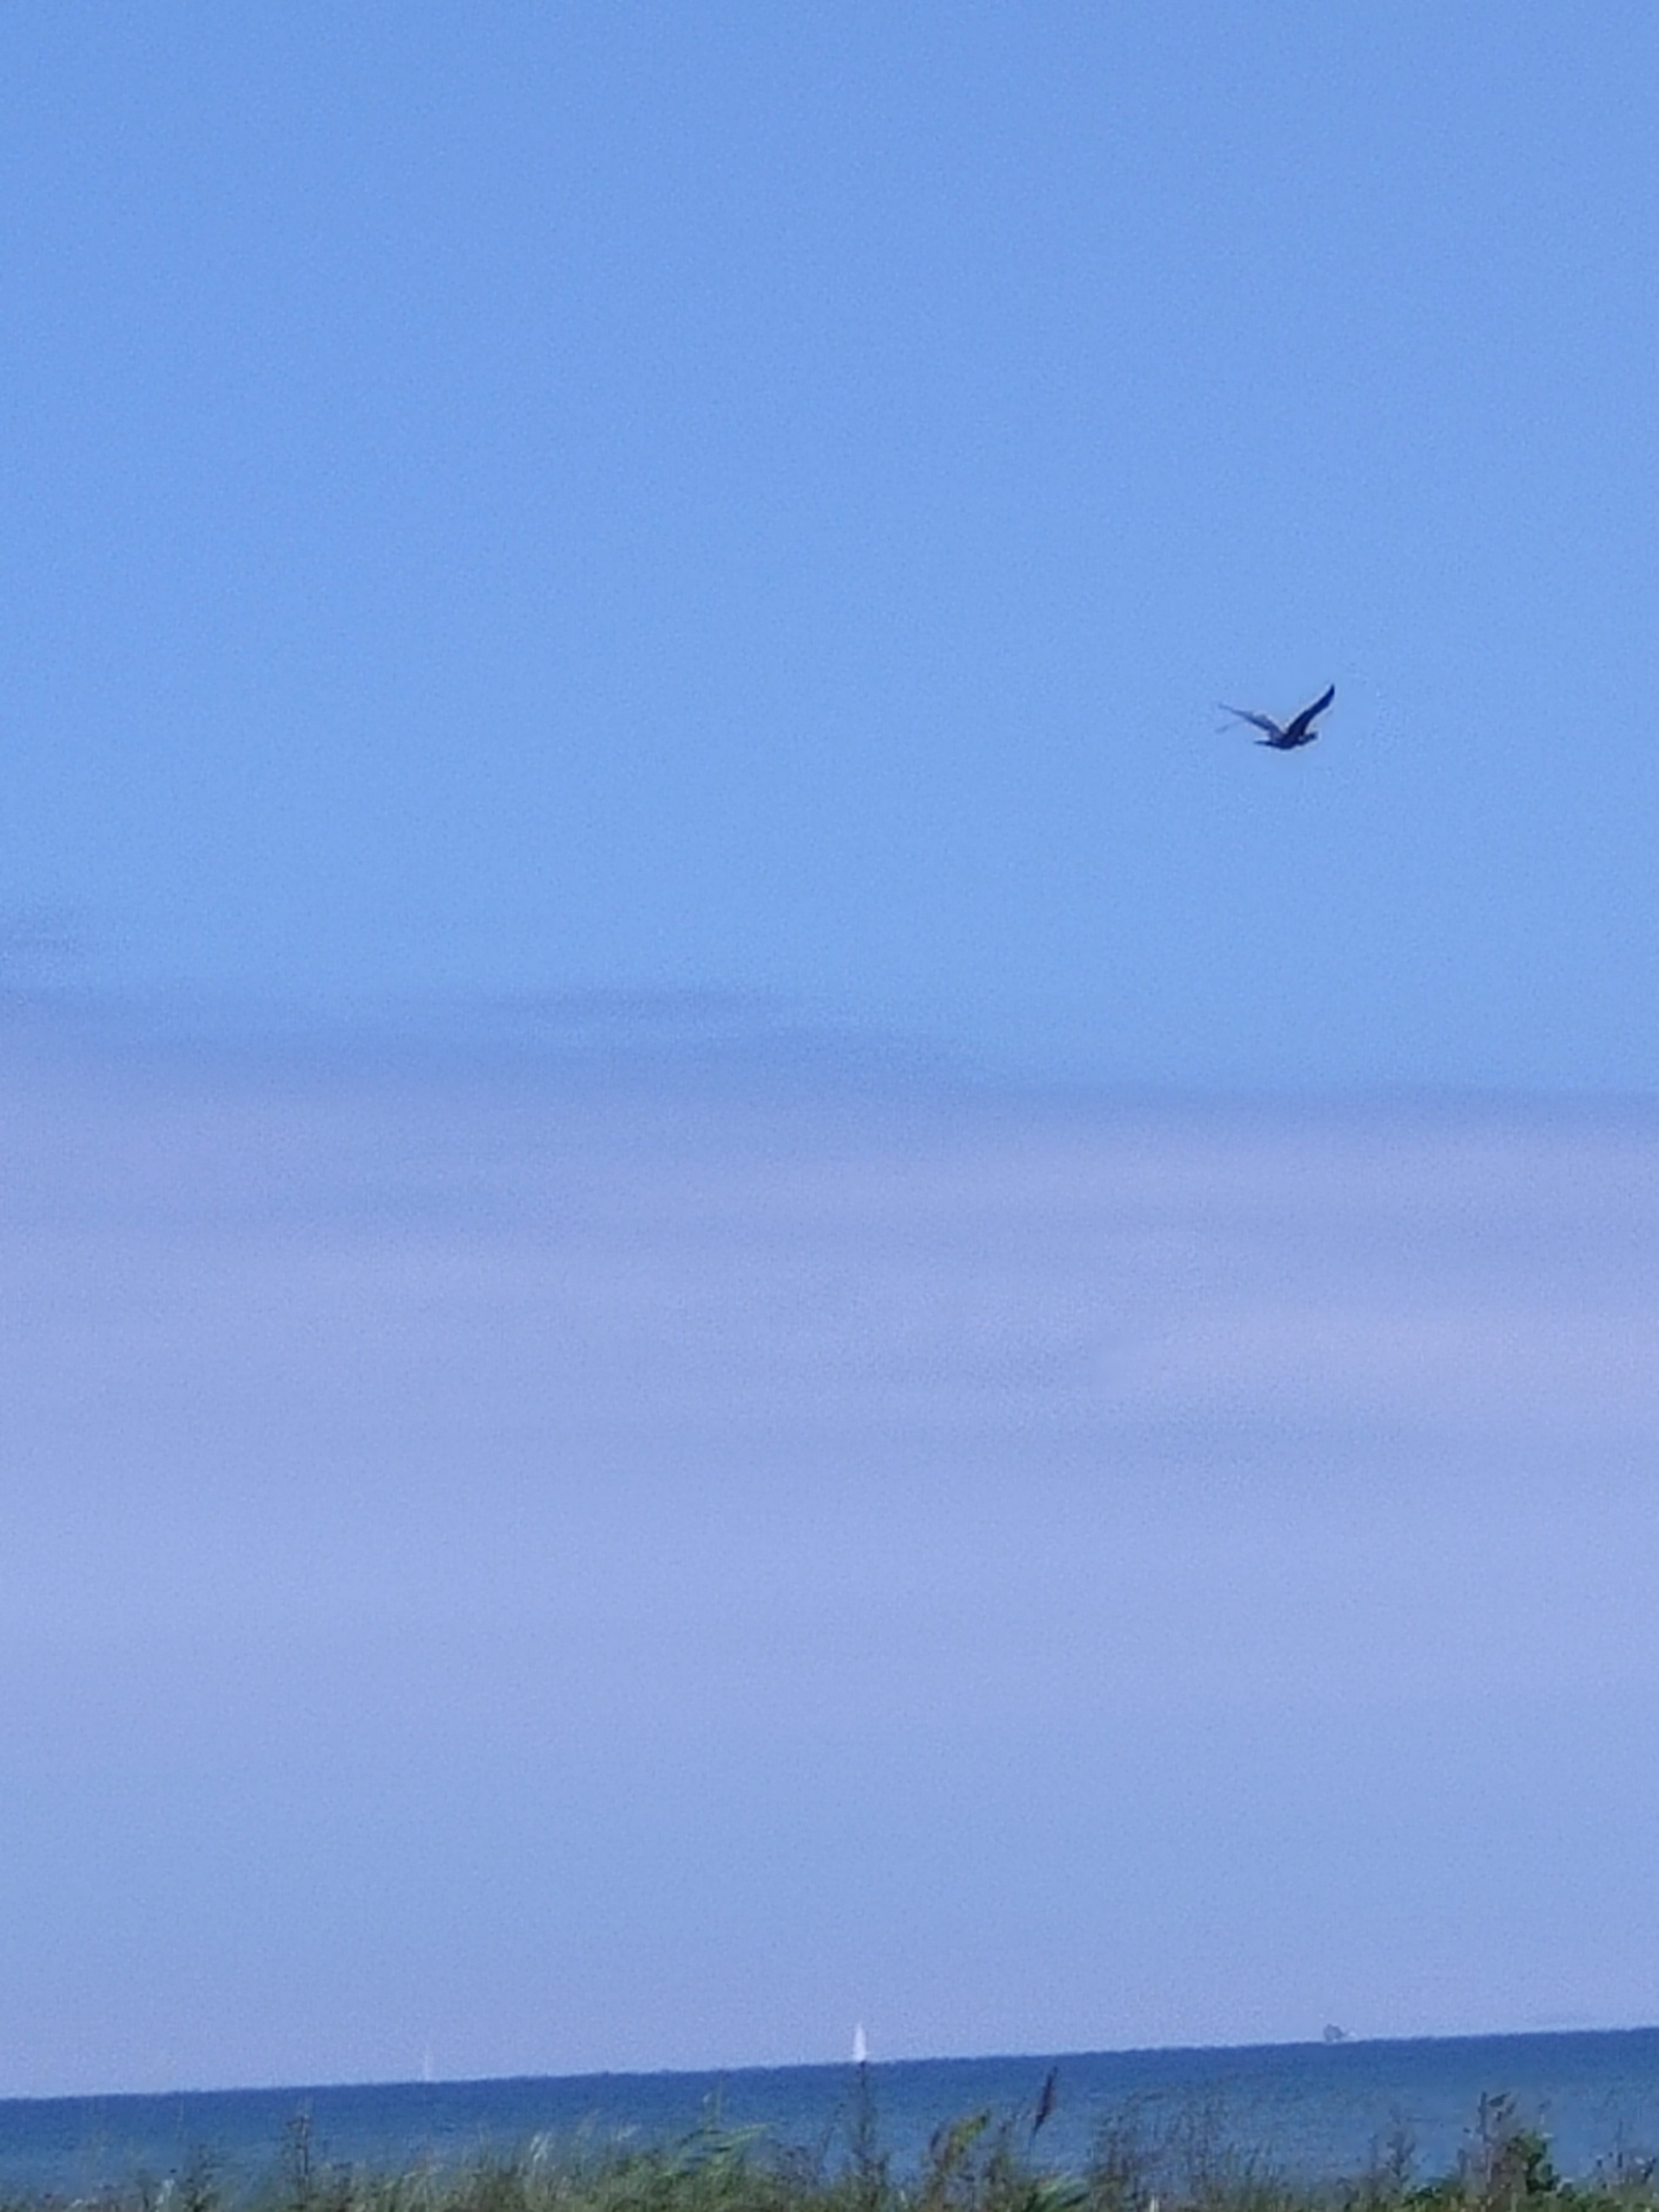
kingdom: Animalia
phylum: Chordata
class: Aves
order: Suliformes
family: Phalacrocoracidae
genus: Phalacrocorax
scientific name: Phalacrocorax carbo
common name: Skarv
